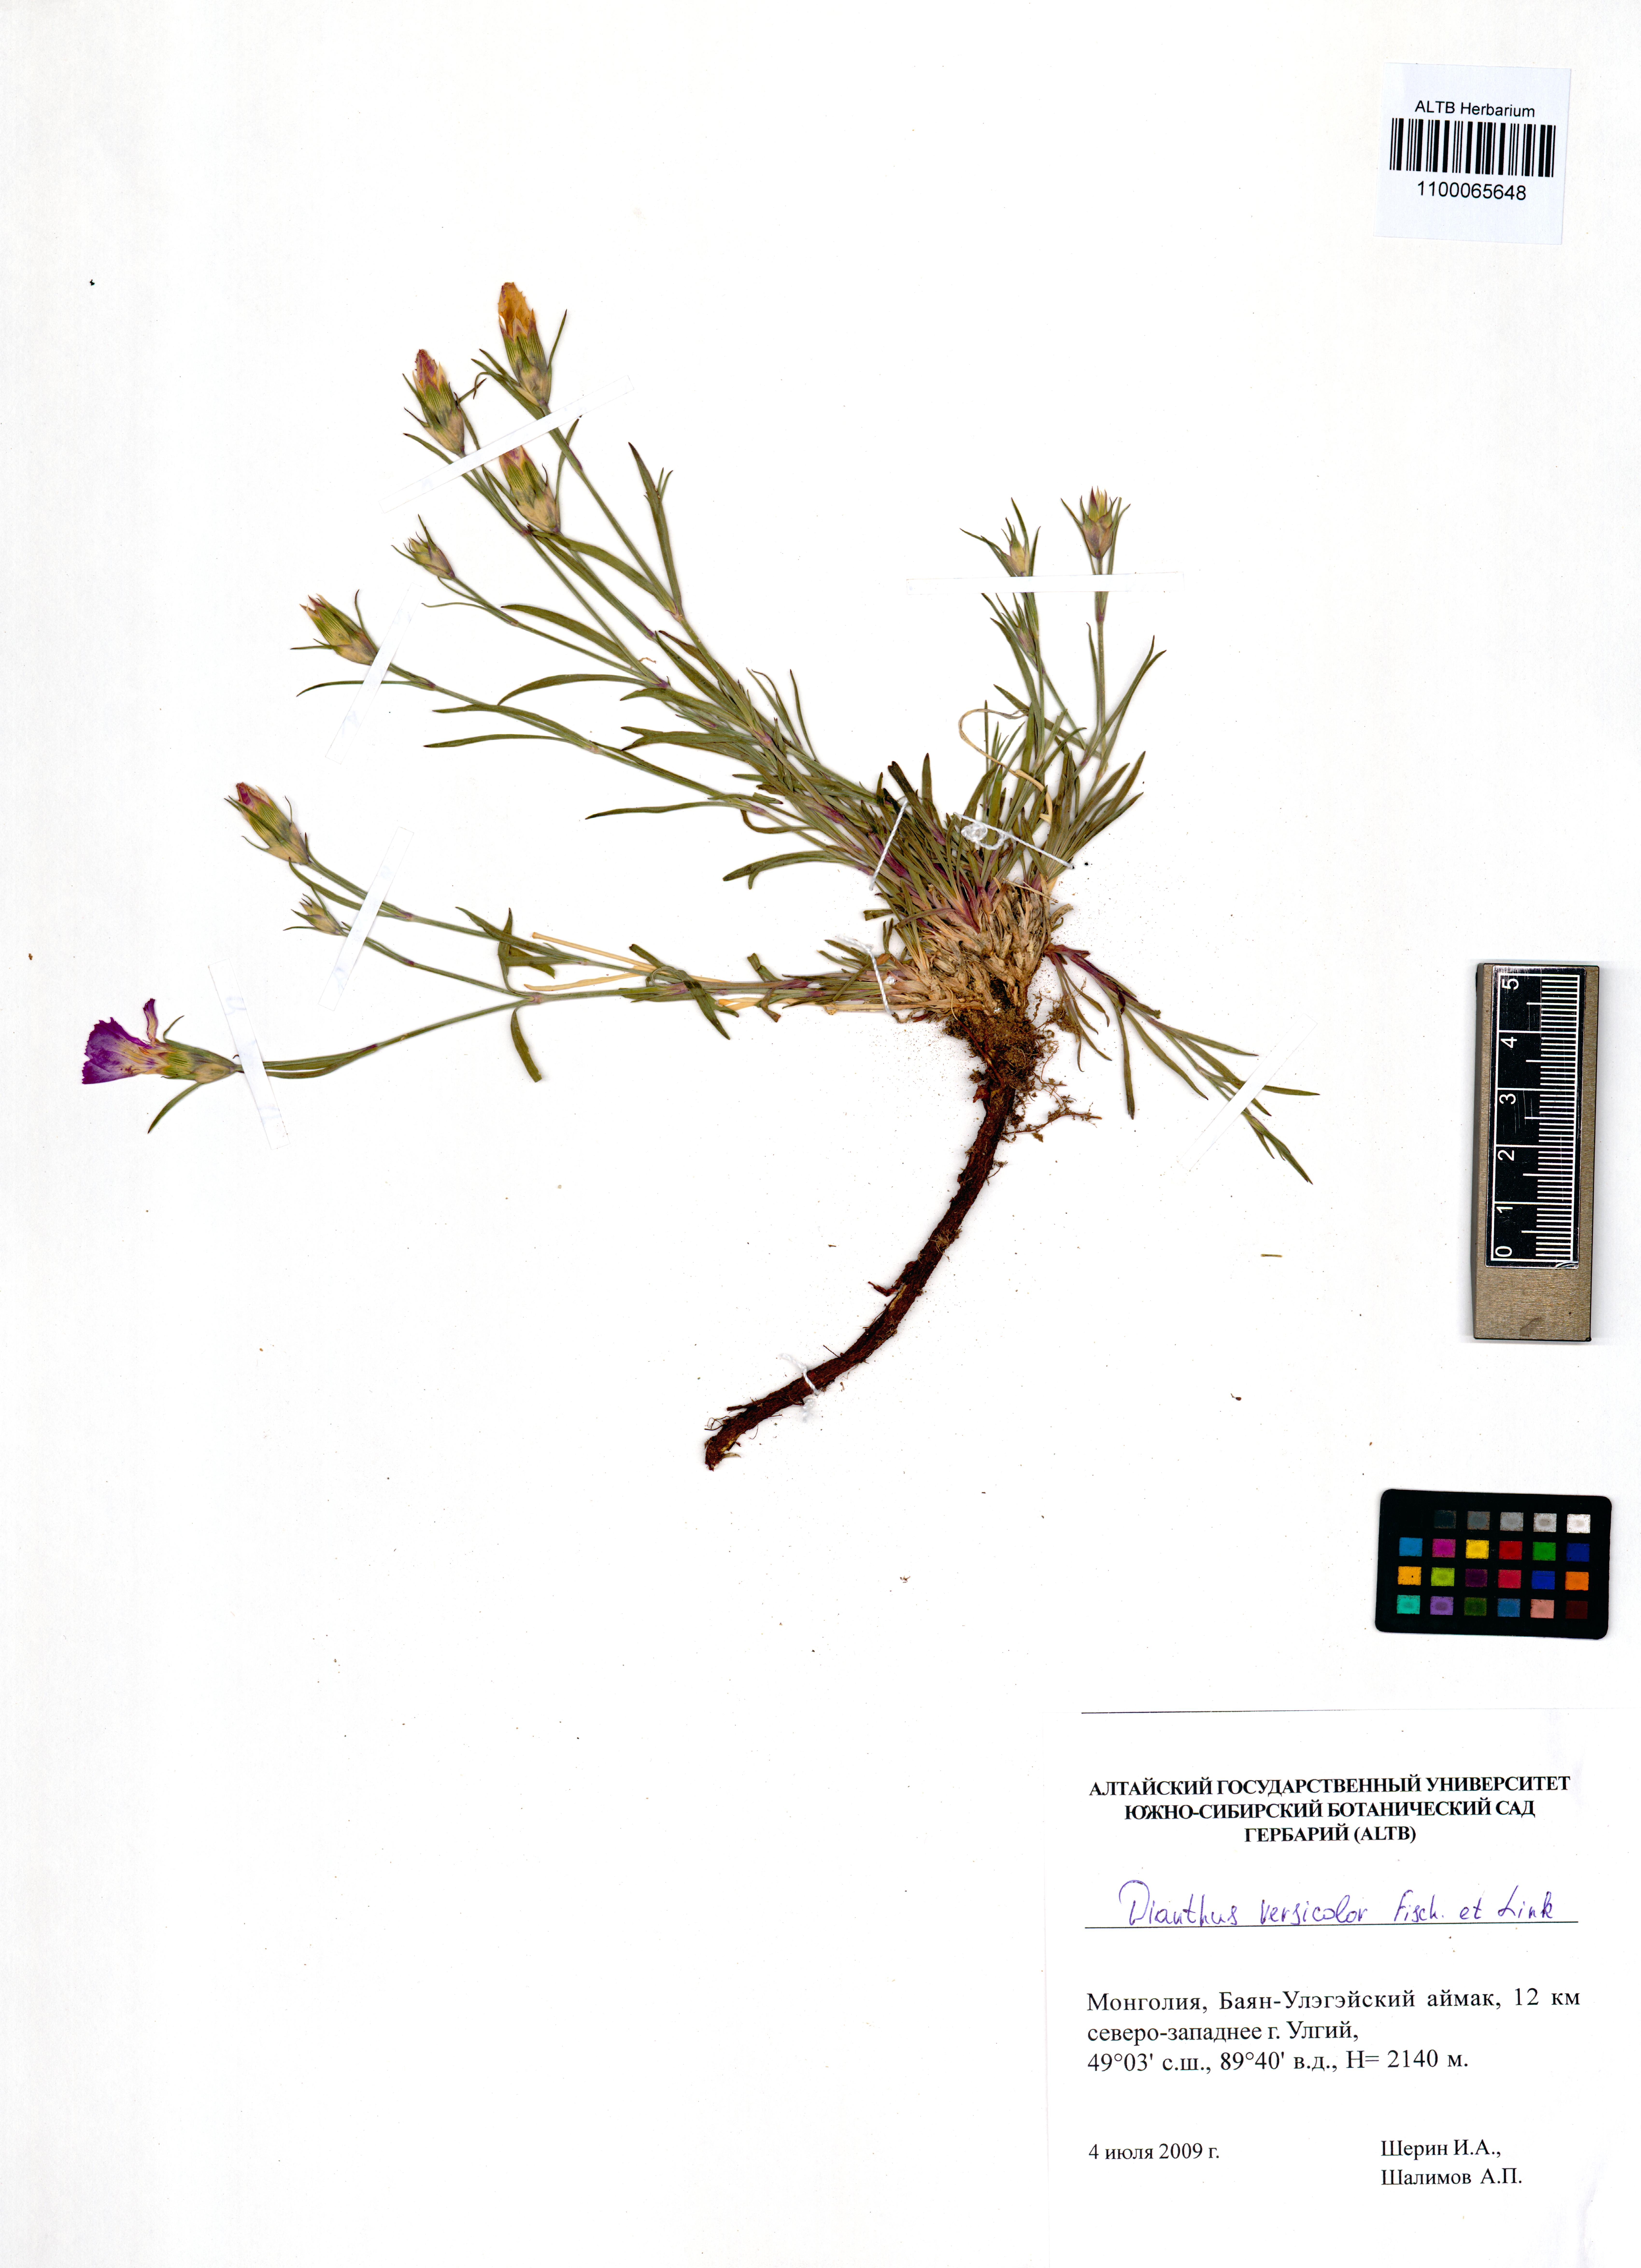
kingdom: Plantae
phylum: Tracheophyta
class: Magnoliopsida
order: Caryophyllales
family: Caryophyllaceae
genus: Dianthus
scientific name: Dianthus chinensis
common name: Rainbow pink
